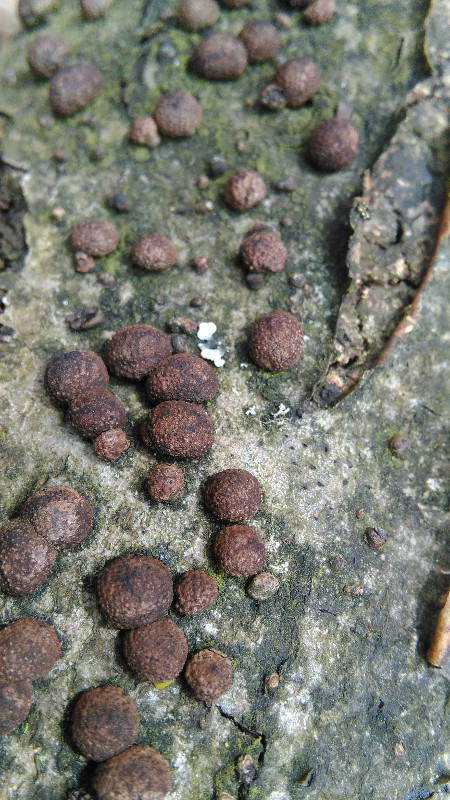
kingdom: Fungi
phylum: Ascomycota
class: Sordariomycetes
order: Xylariales
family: Hypoxylaceae
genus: Hypoxylon
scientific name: Hypoxylon fragiforme
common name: kuljordbær
